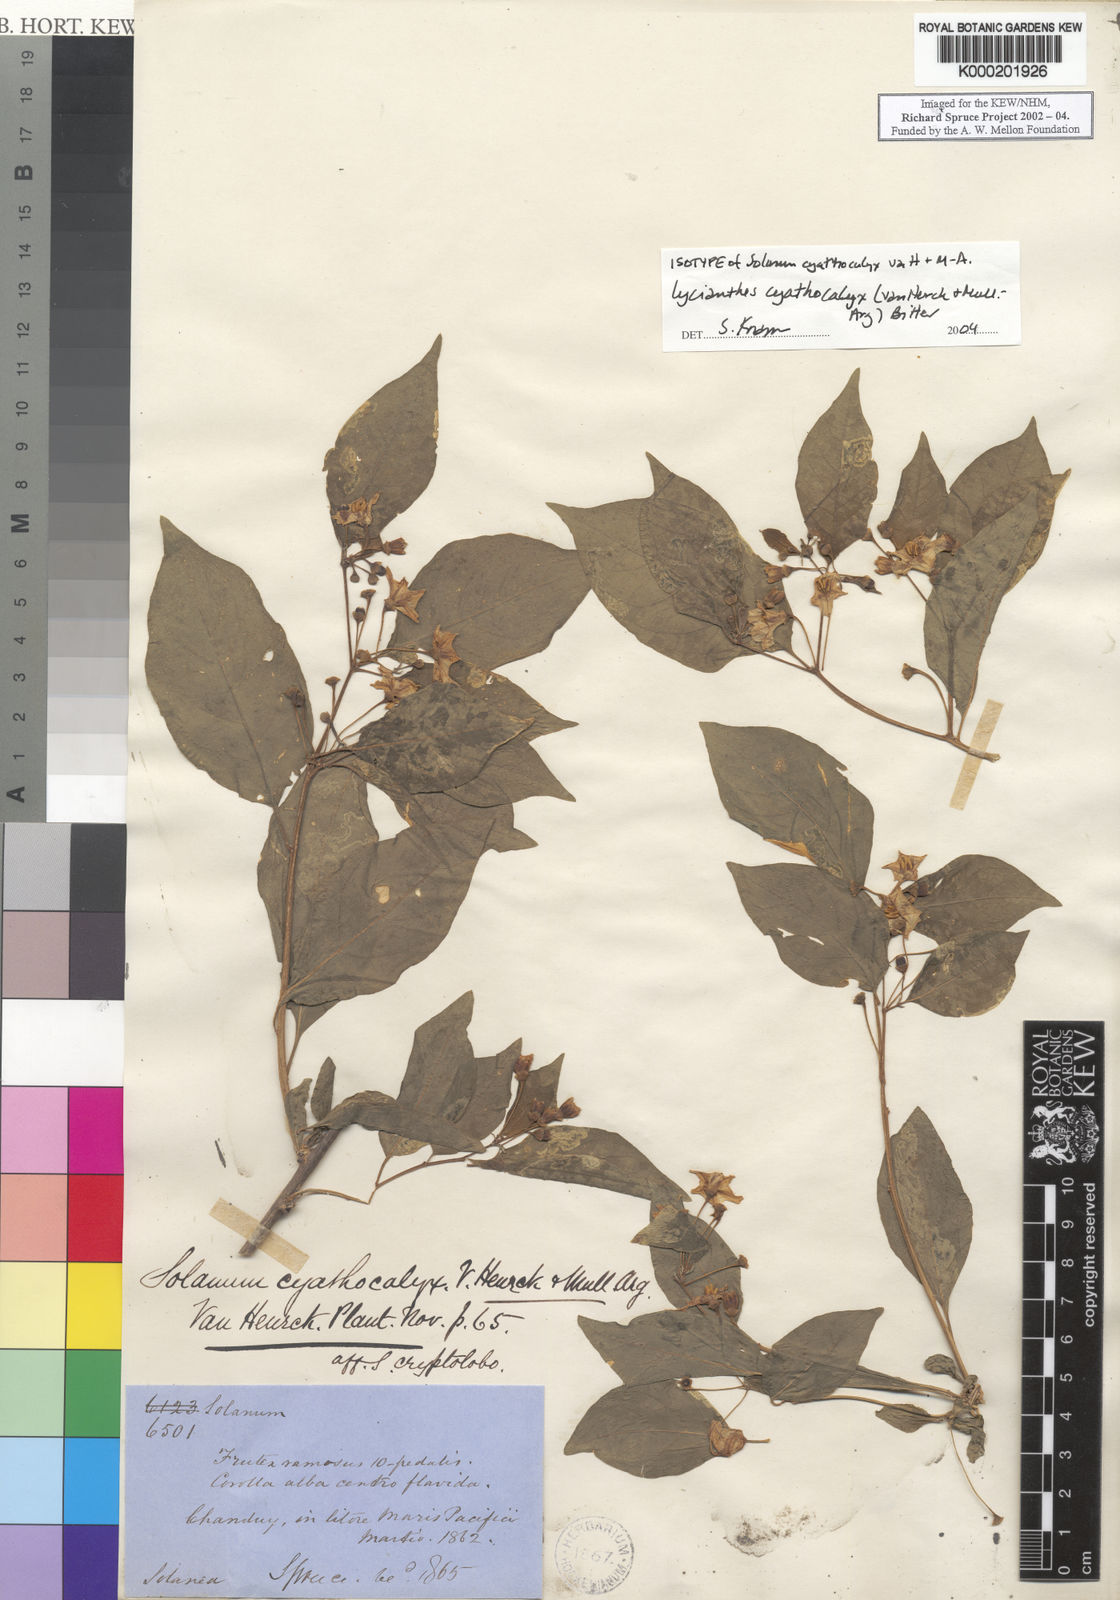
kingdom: Plantae
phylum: Tracheophyta
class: Magnoliopsida
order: Solanales
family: Solanaceae
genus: Lycianthes
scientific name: Lycianthes
